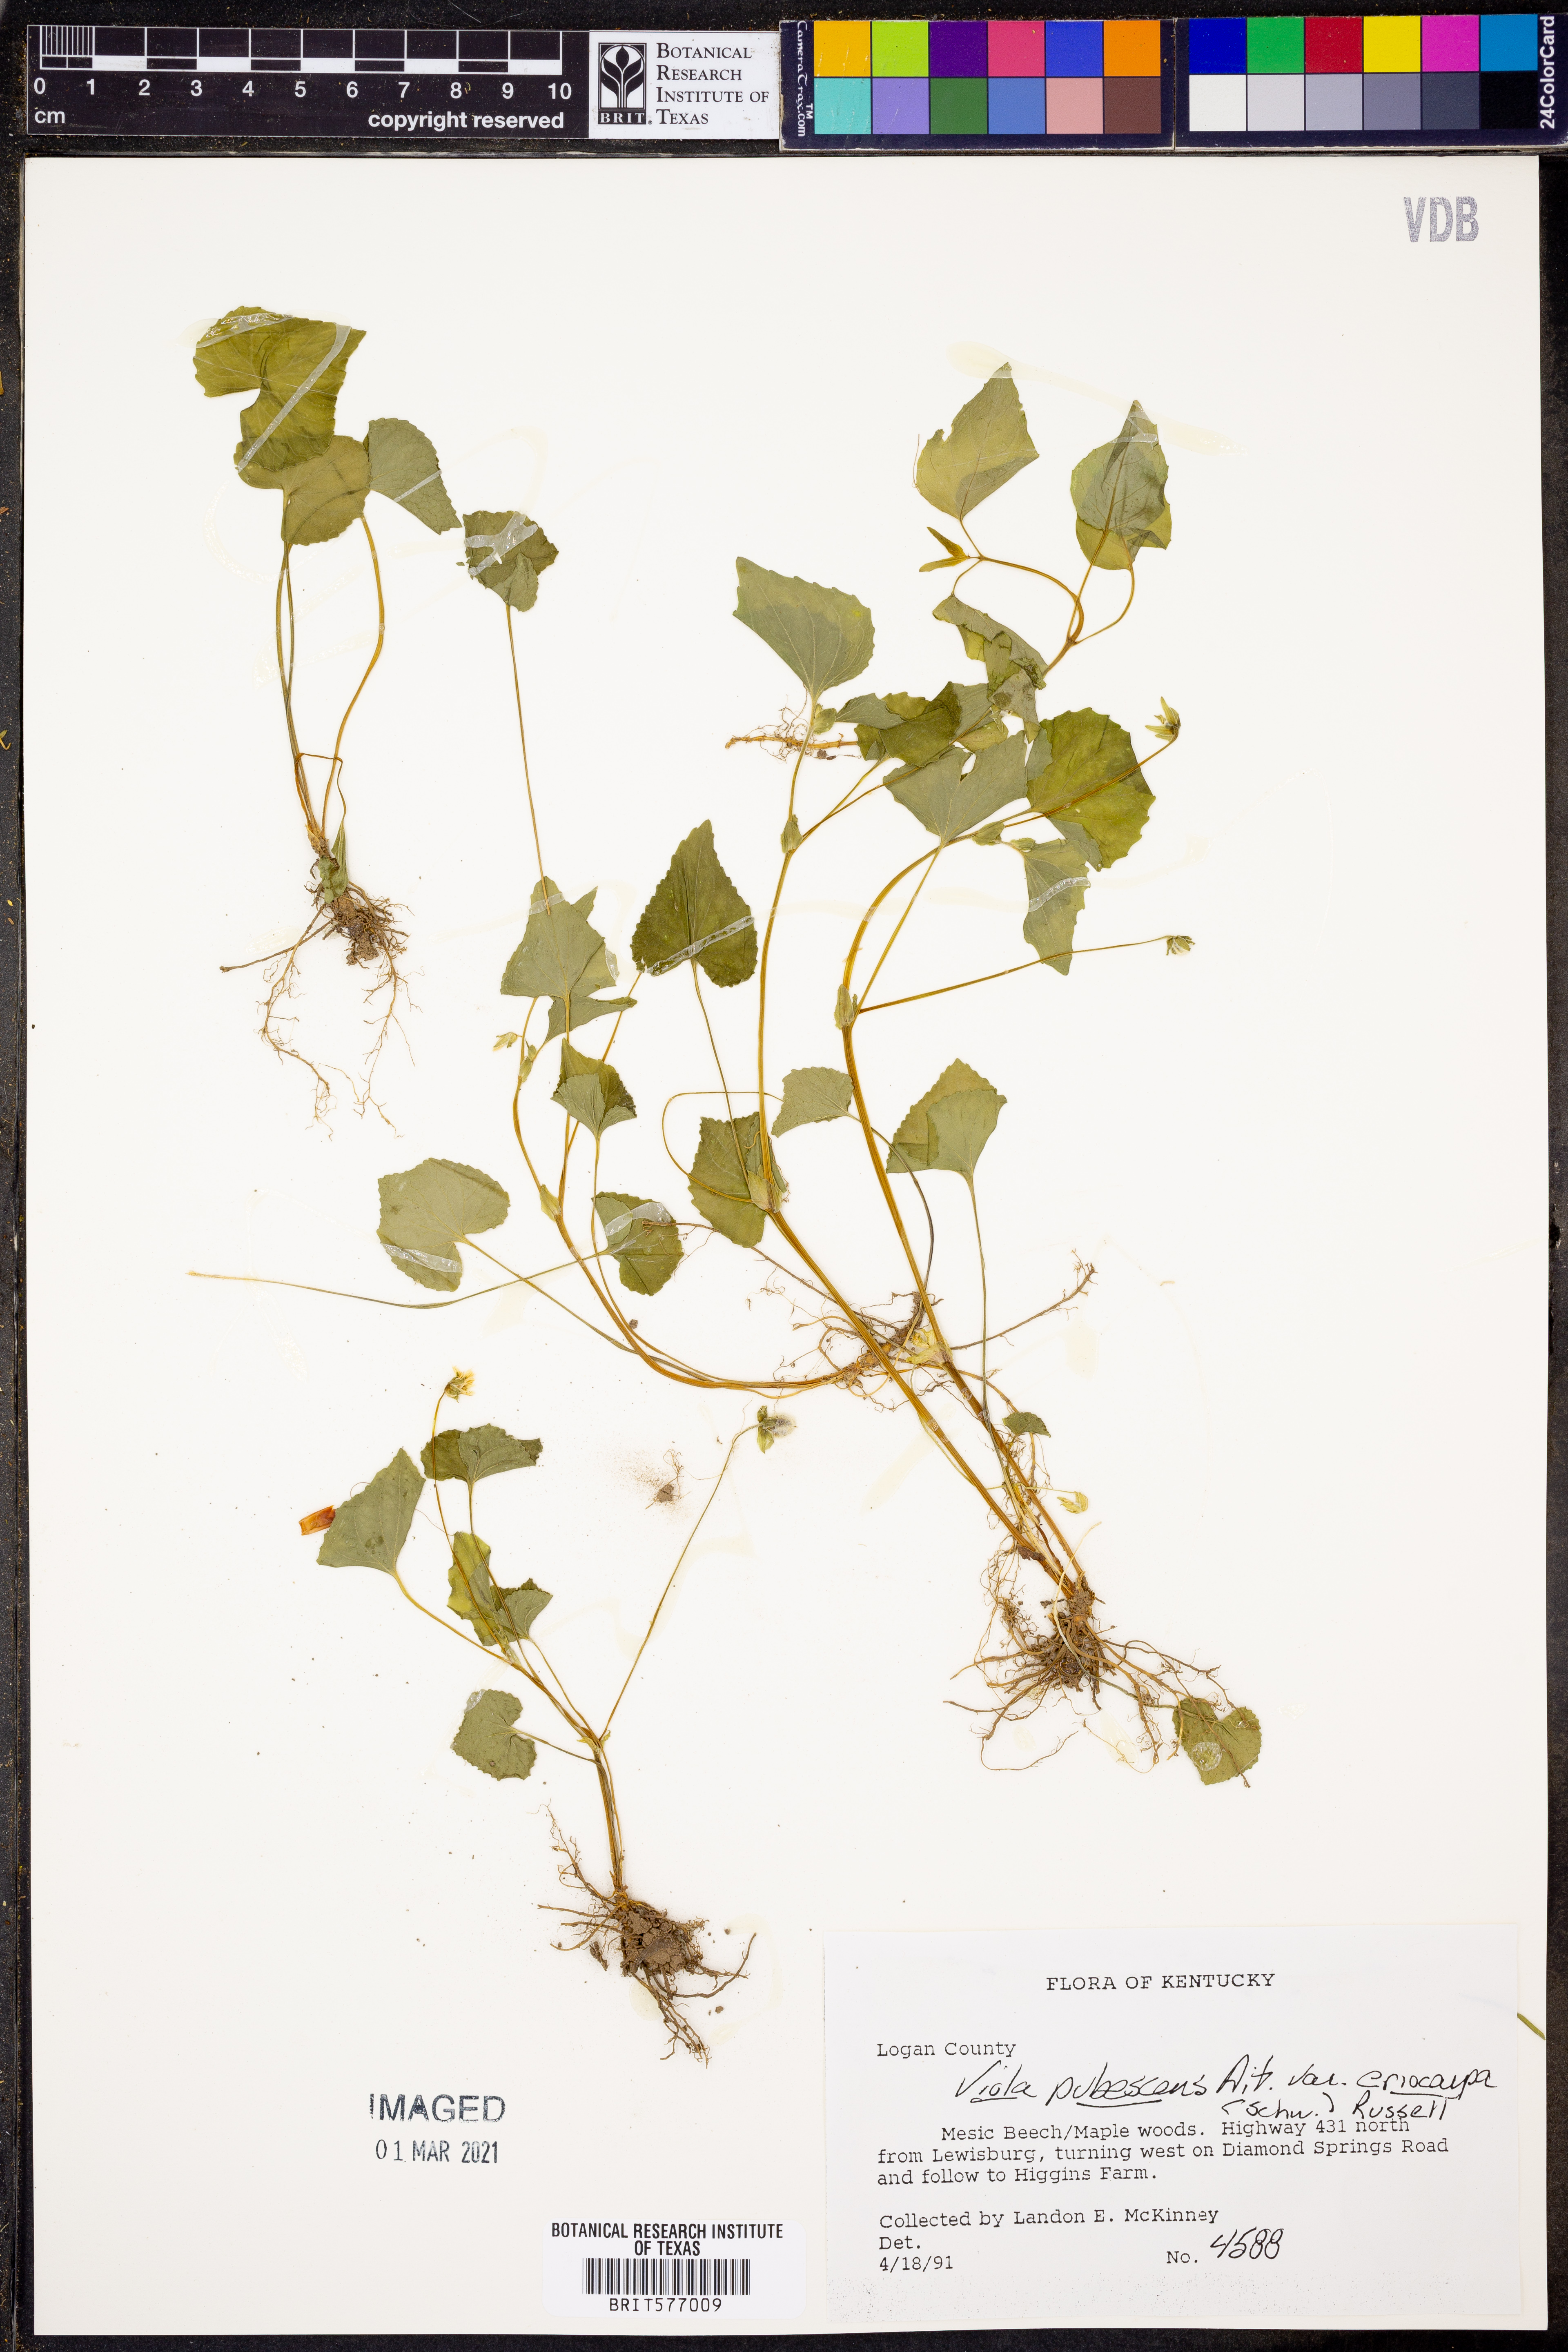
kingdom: Plantae
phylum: Tracheophyta
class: Magnoliopsida
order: Malpighiales
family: Violaceae
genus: Viola
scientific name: Viola eriocarpa
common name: Smooth yellow violet
